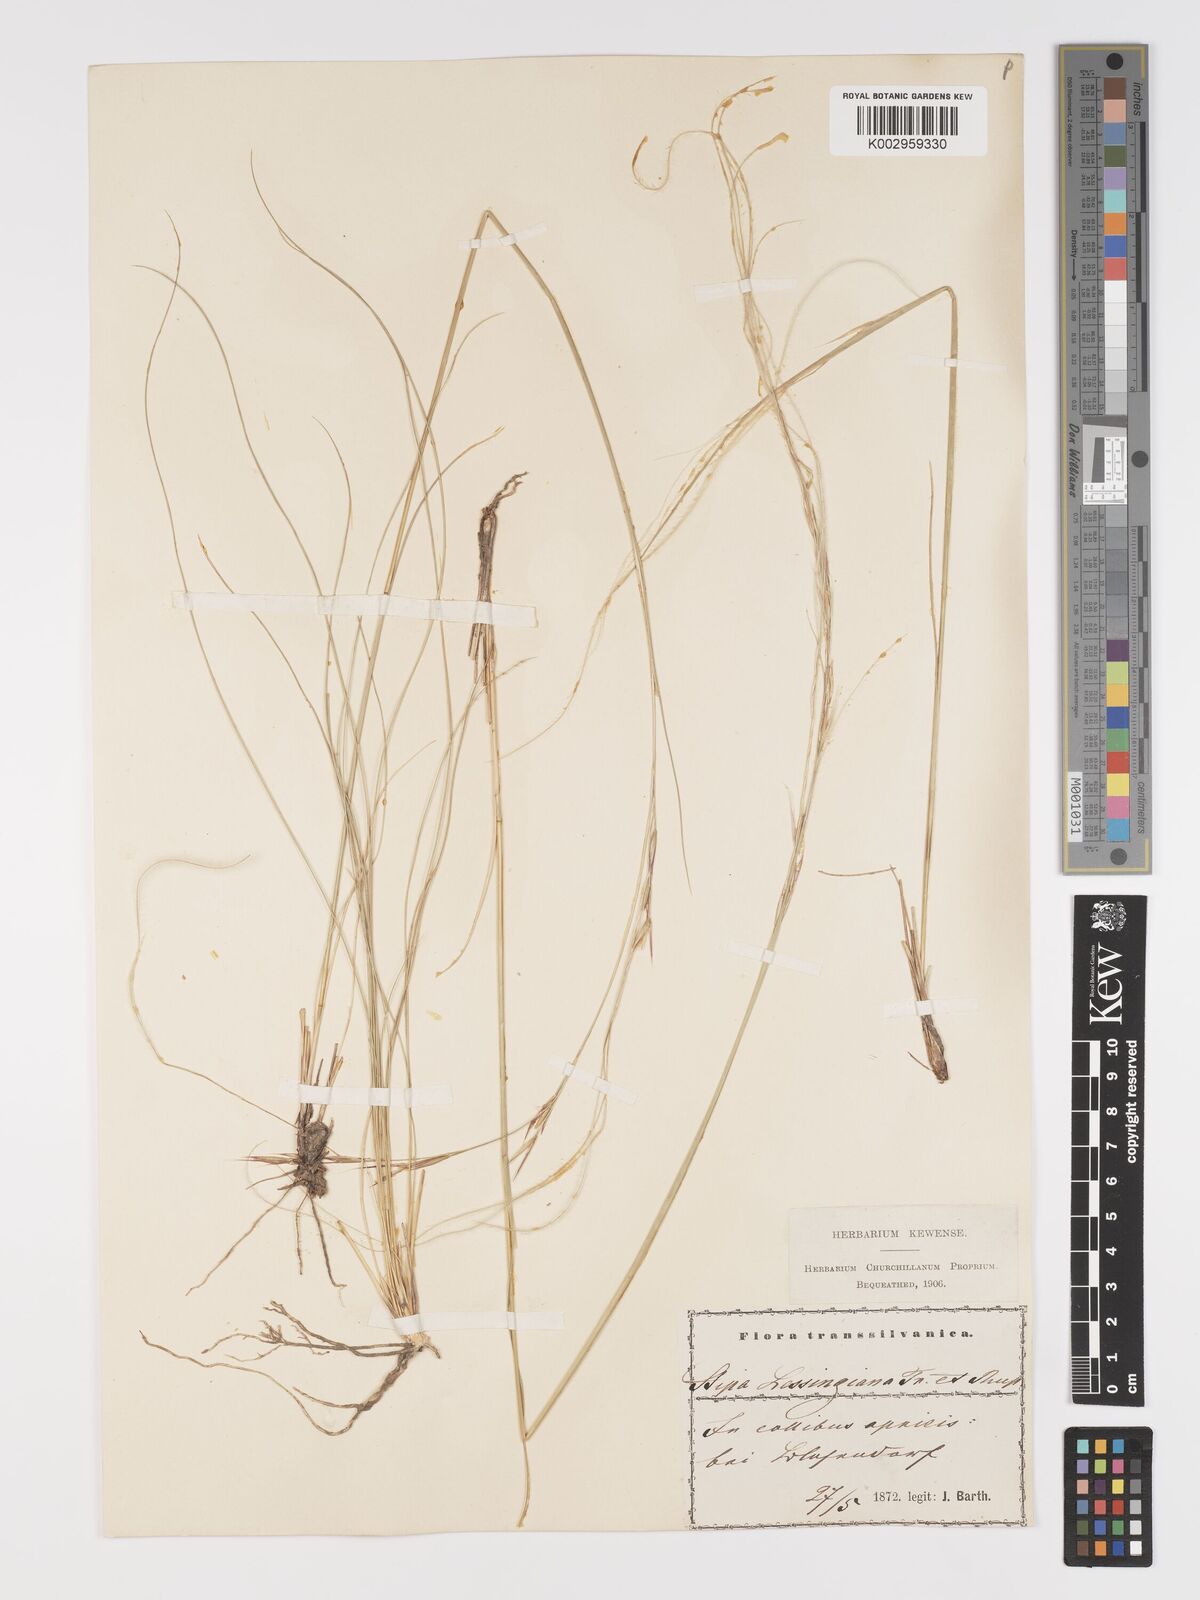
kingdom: Plantae
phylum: Tracheophyta
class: Liliopsida
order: Poales
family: Poaceae
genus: Stipa
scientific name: Stipa lessingiana
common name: Needle grass
